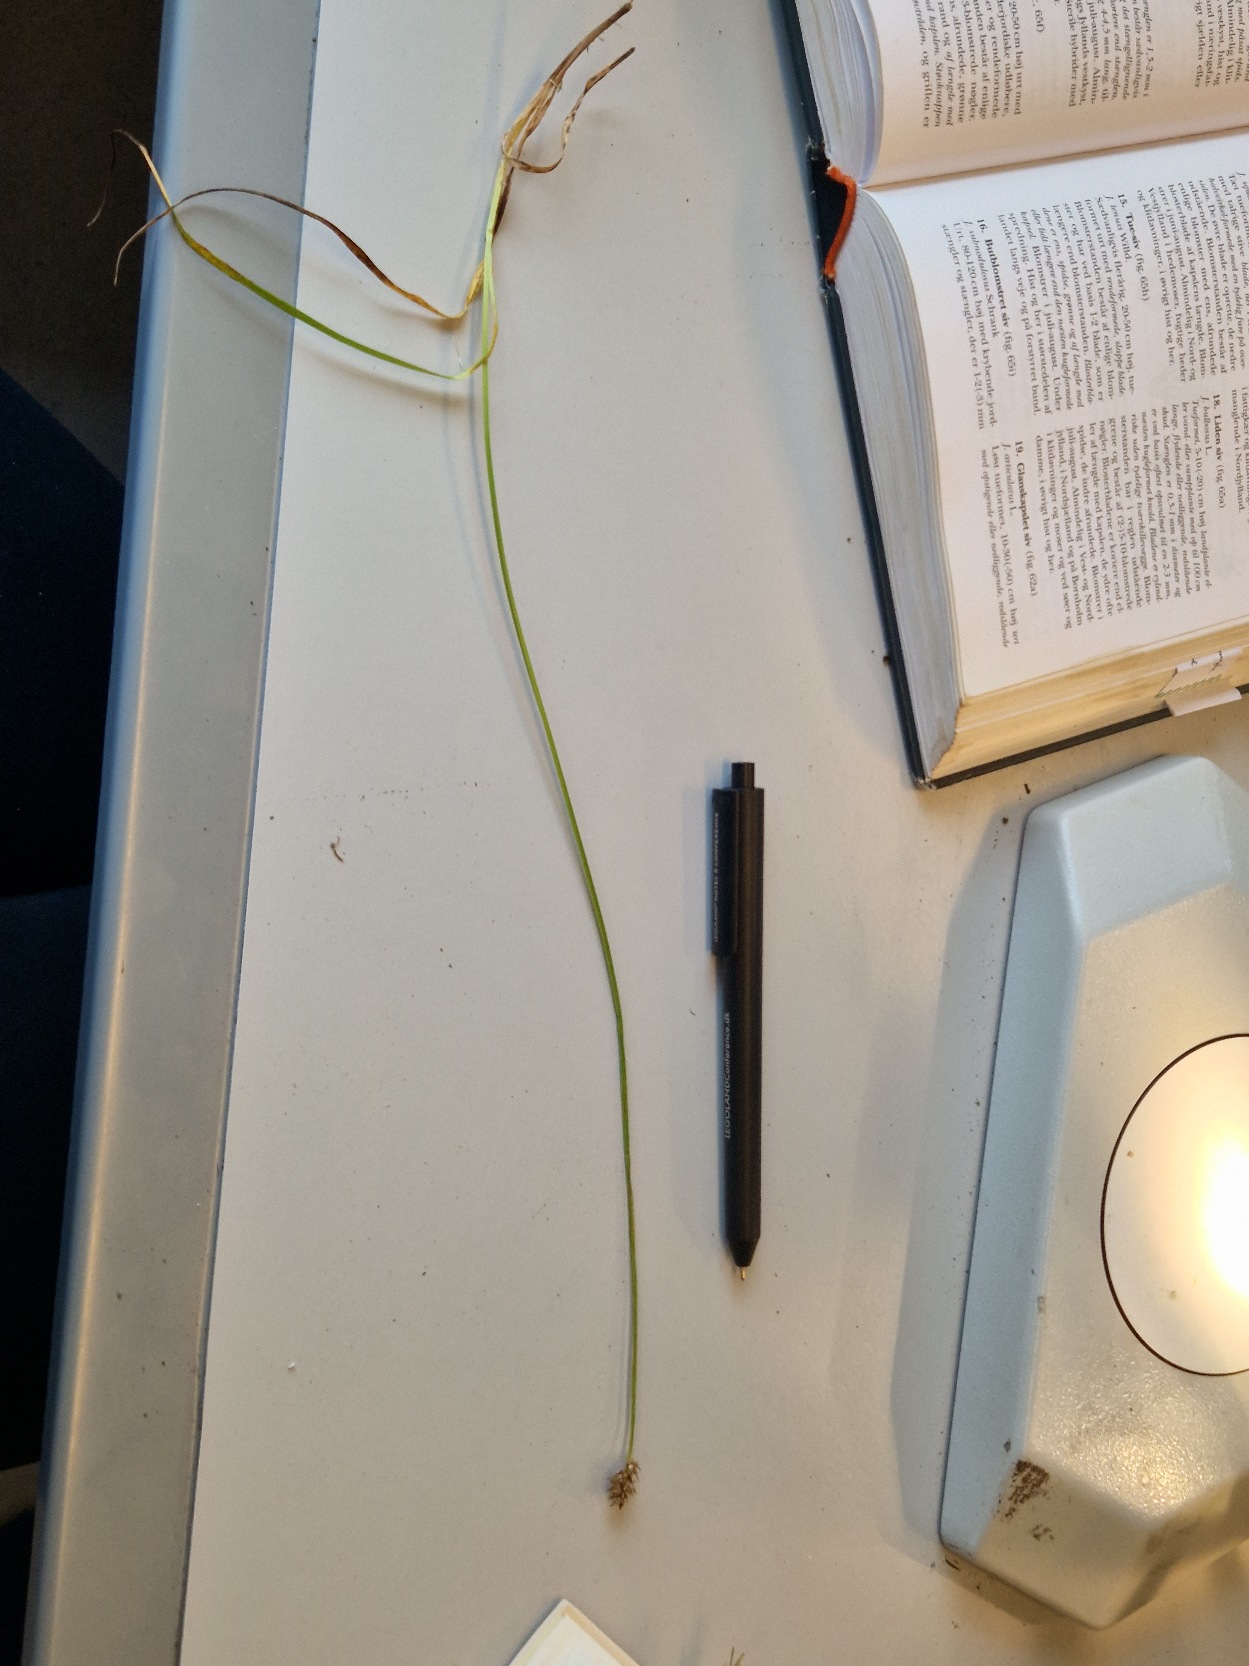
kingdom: Plantae
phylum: Tracheophyta
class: Liliopsida
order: Poales
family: Cyperaceae
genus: Carex
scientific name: Carex otrubae
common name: Sylt-star
